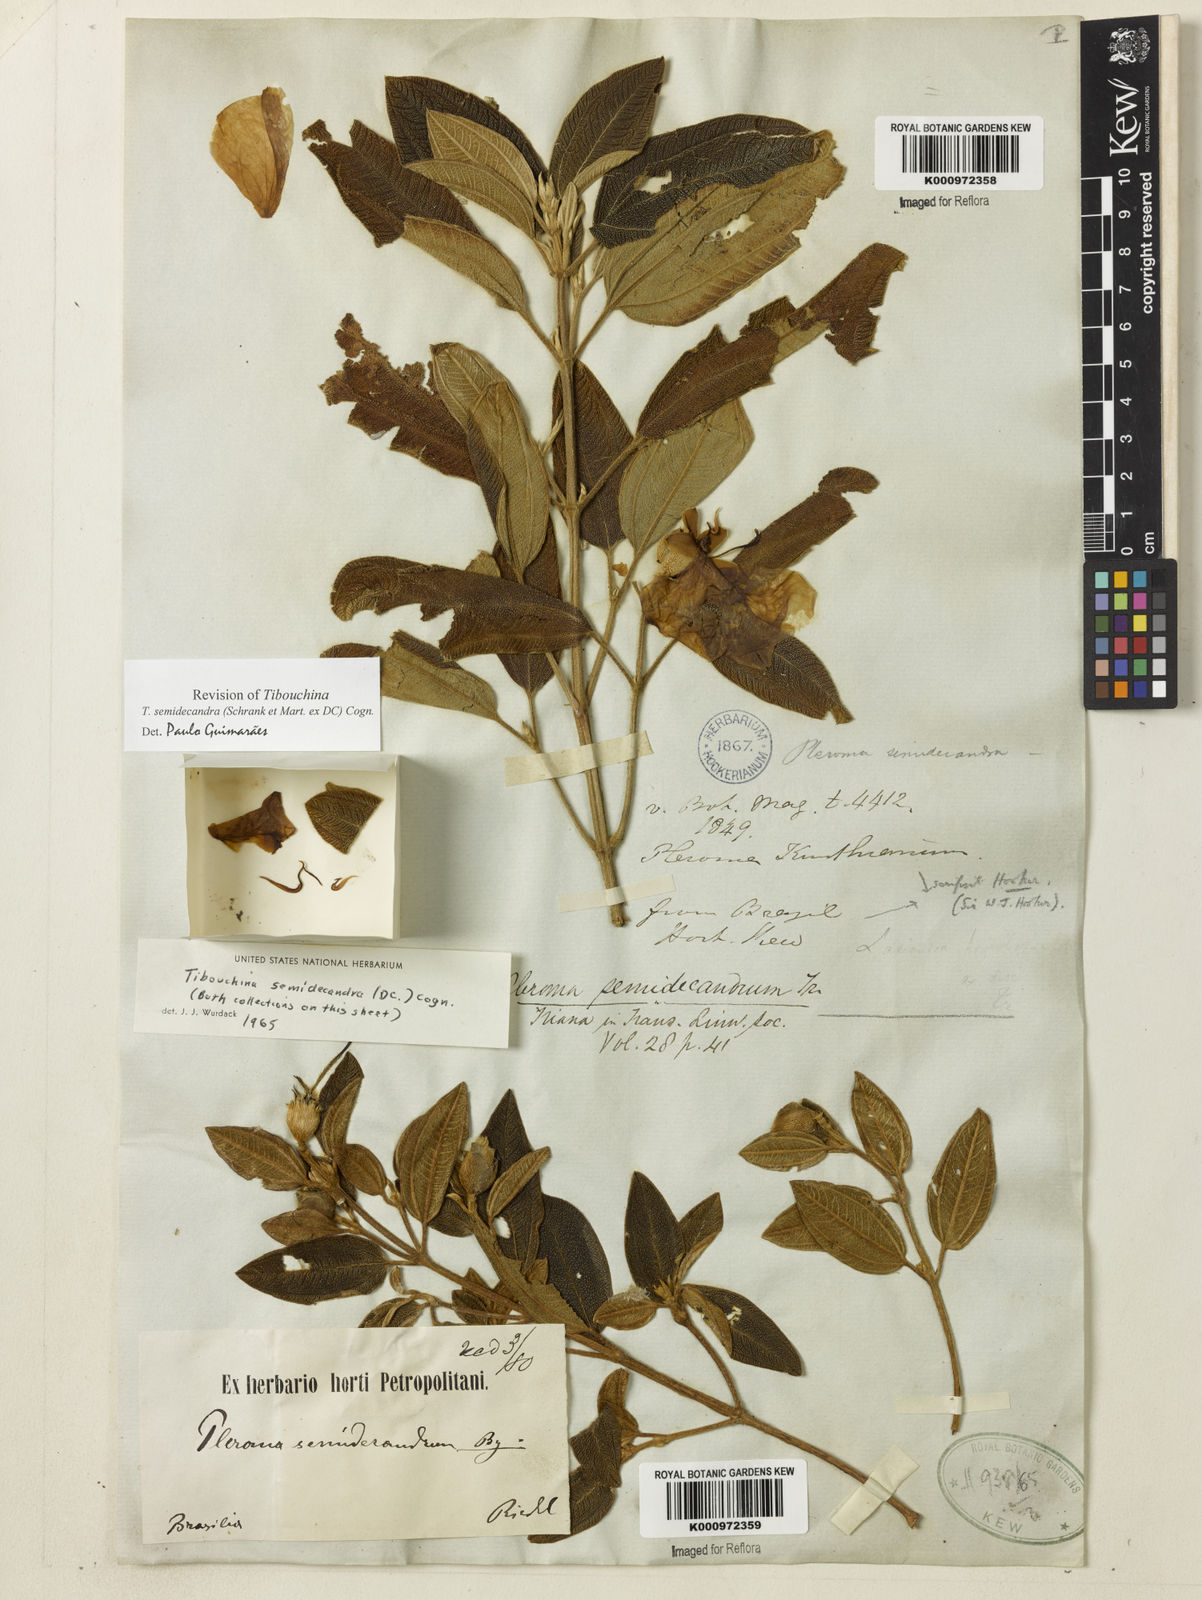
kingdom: Plantae
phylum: Tracheophyta
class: Magnoliopsida
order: Myrtales
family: Melastomataceae
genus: Pleroma
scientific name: Pleroma semidecandrum
